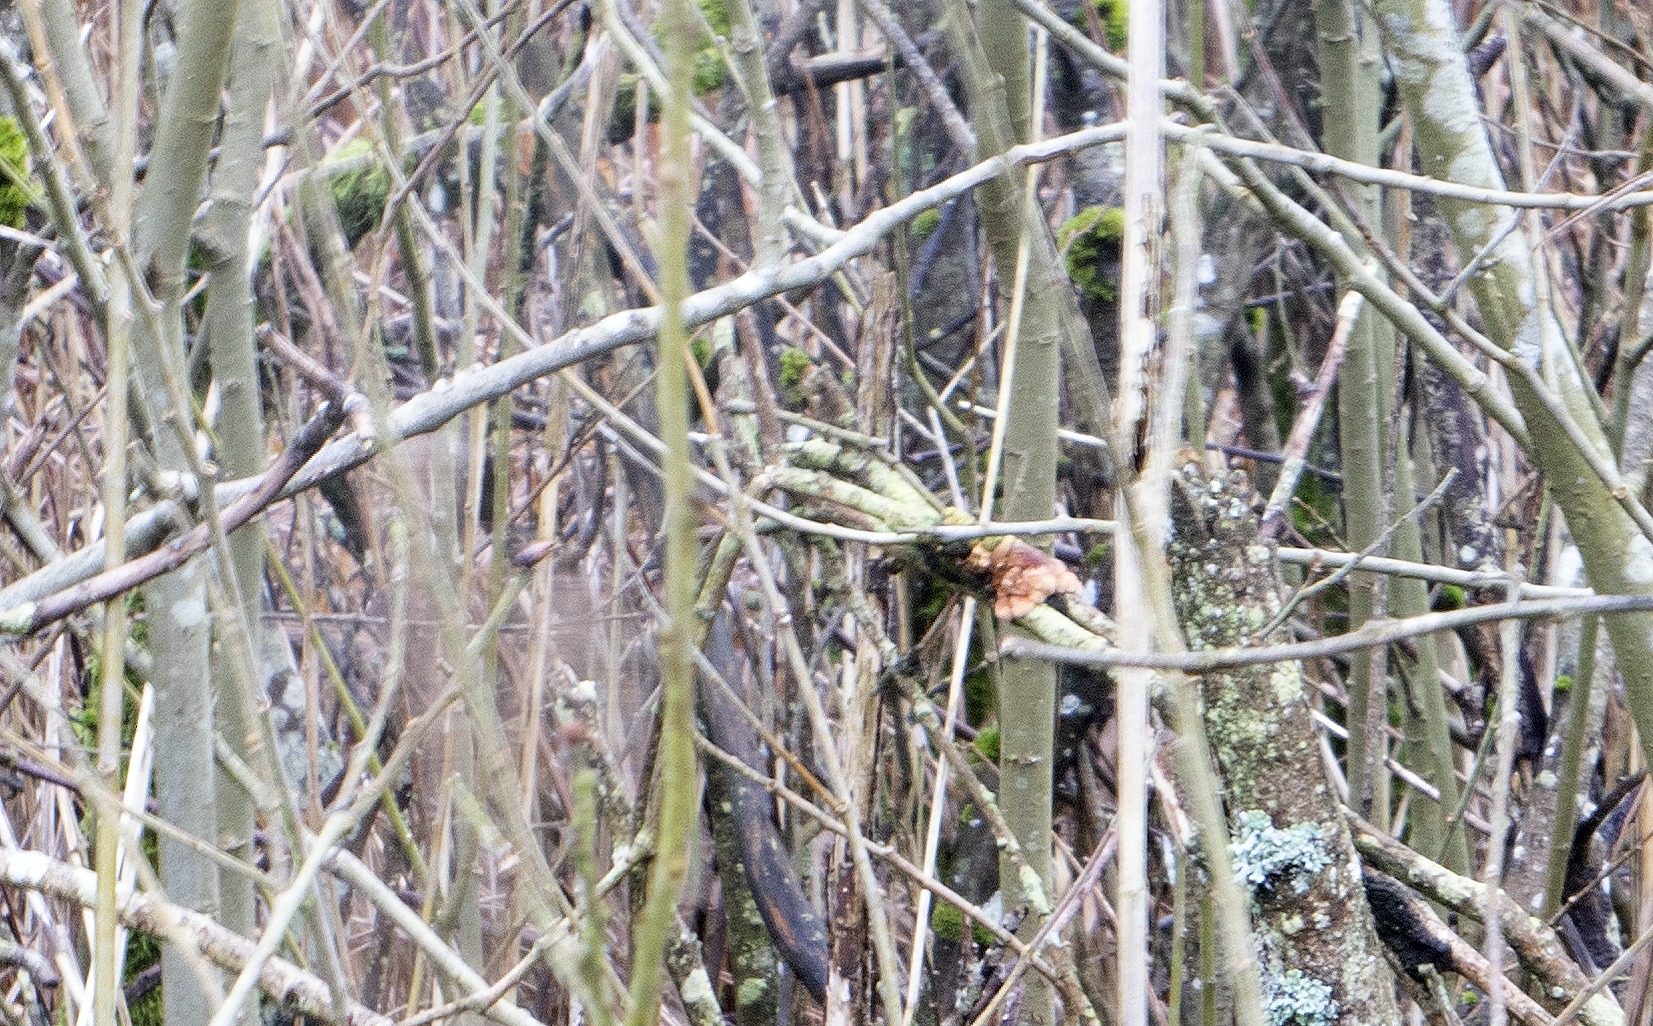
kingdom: Fungi
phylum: Ascomycota
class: Sordariomycetes
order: Hypocreales
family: Hypocreaceae
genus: Hypocreopsis
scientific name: Hypocreopsis lichenoides
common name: pilfinger
